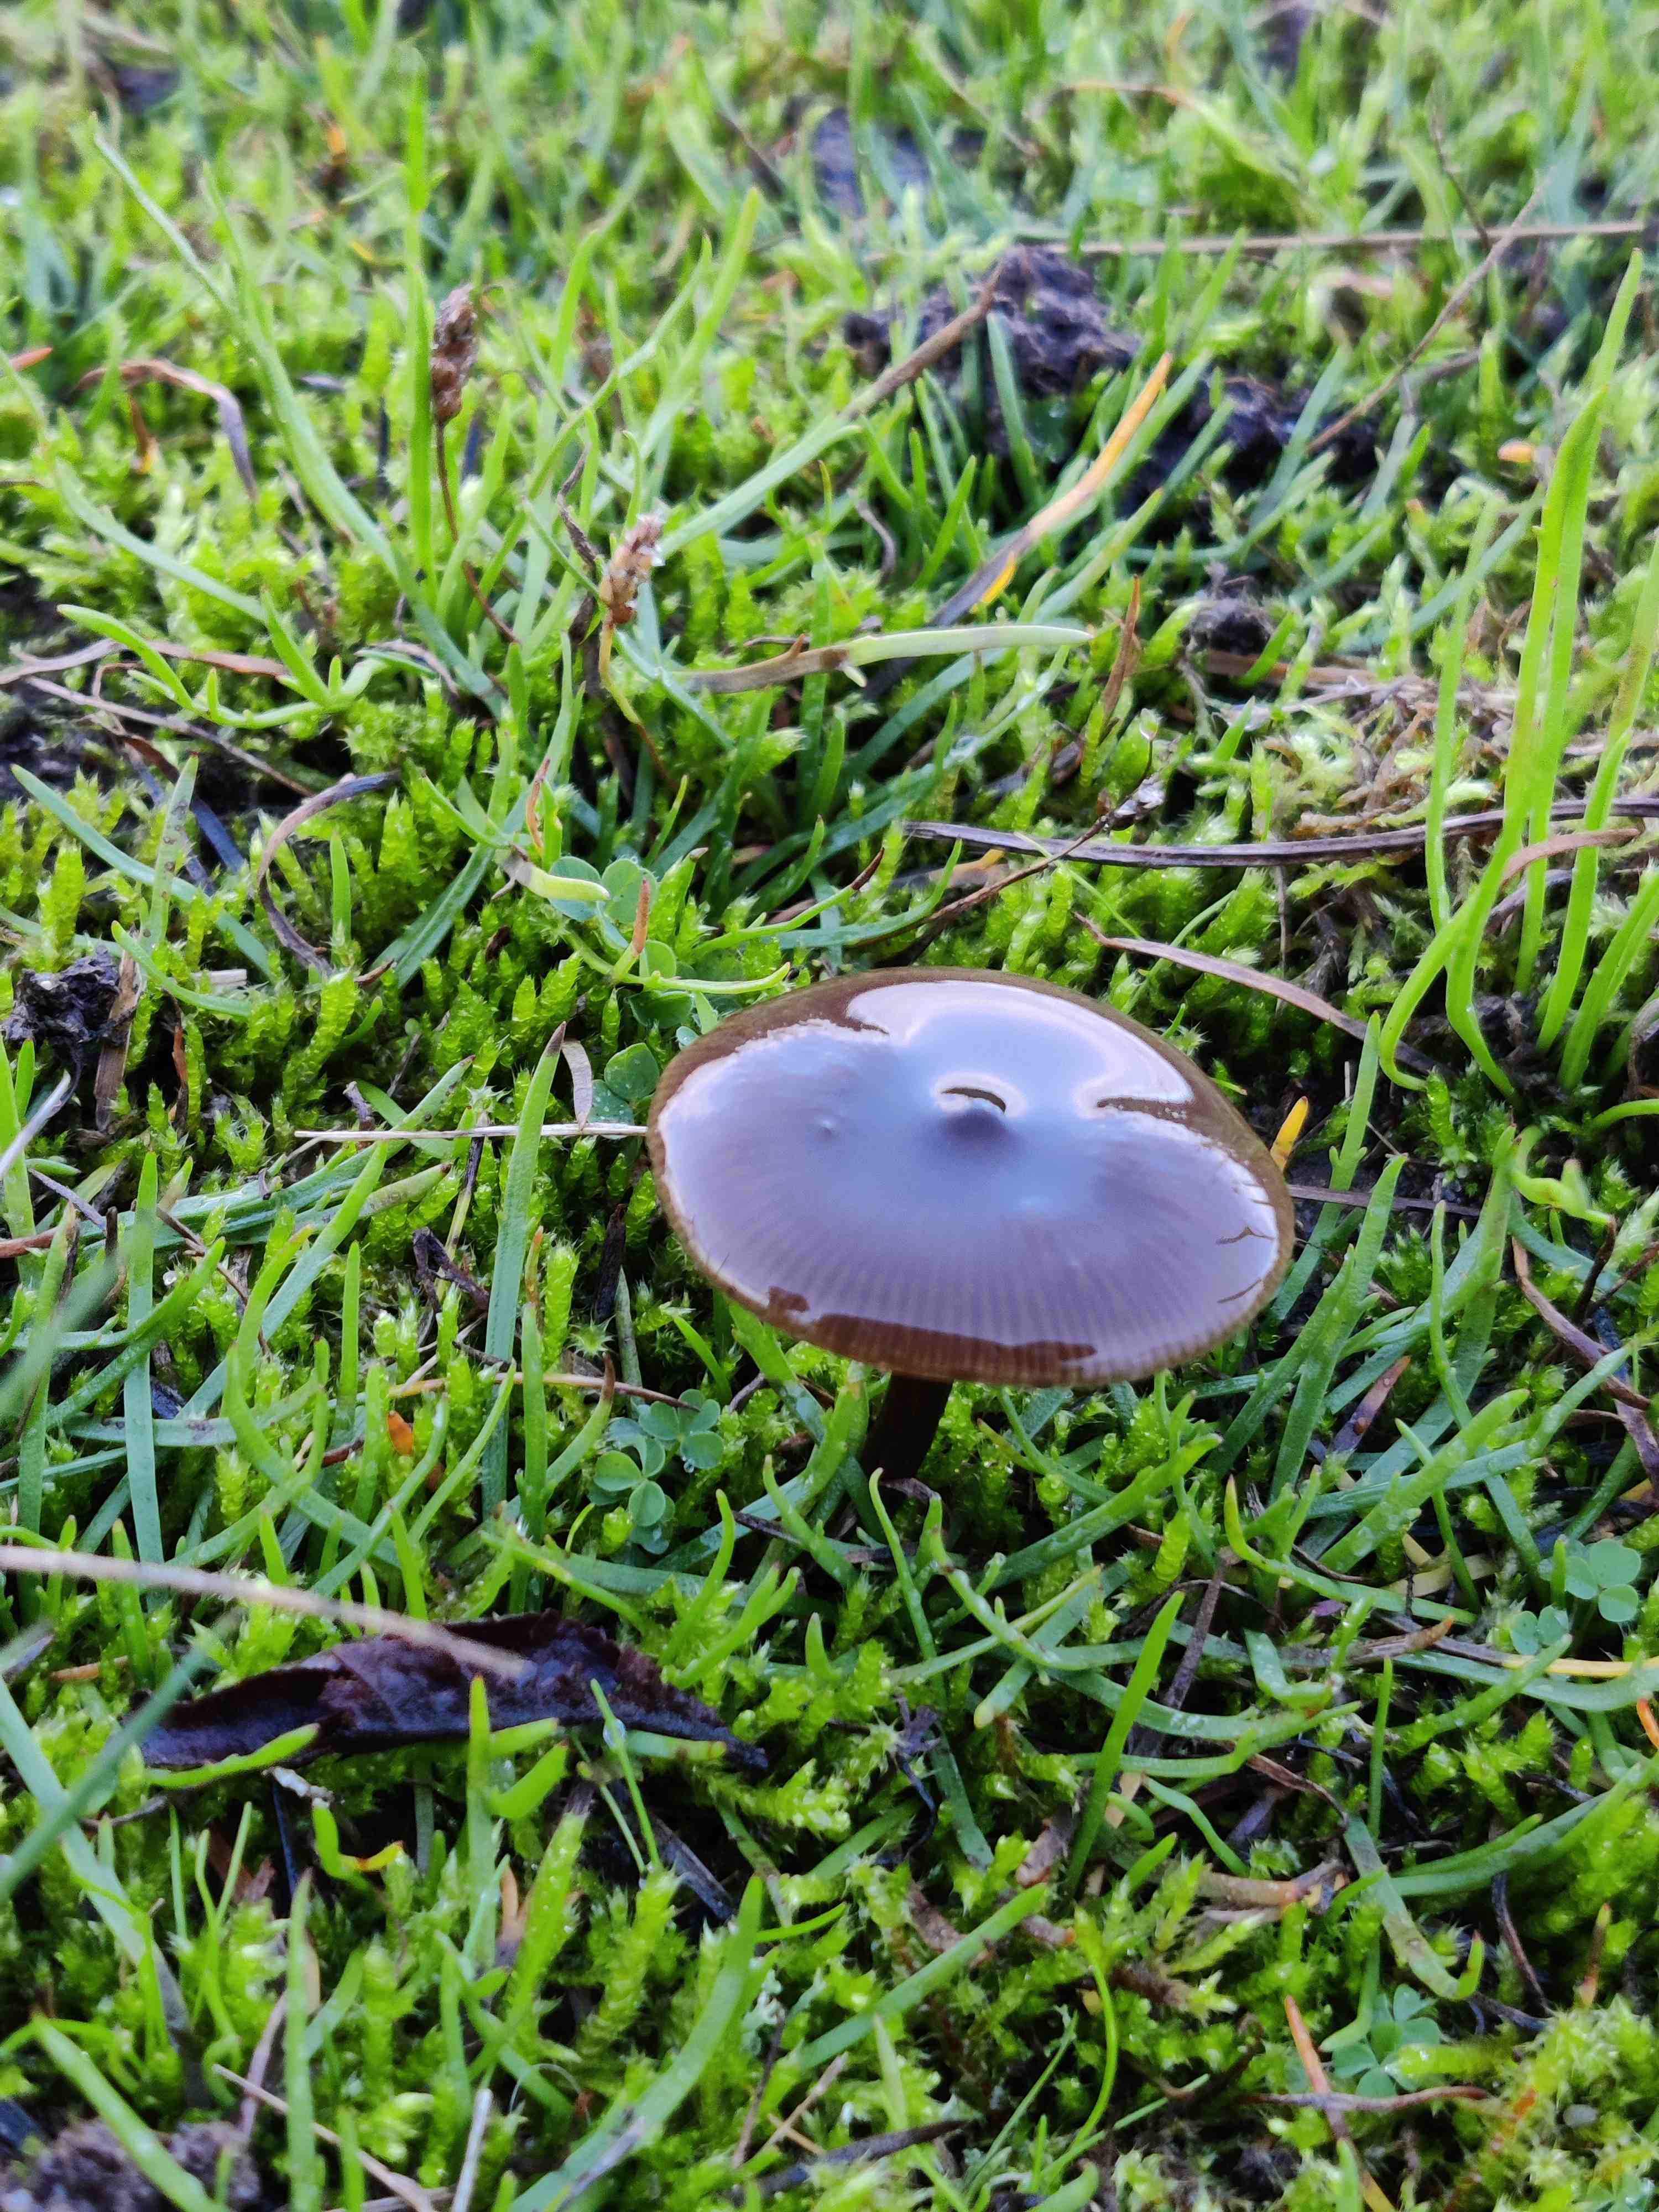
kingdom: Fungi
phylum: Basidiomycota
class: Agaricomycetes
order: Agaricales
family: Entolomataceae
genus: Entoloma
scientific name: Entoloma
